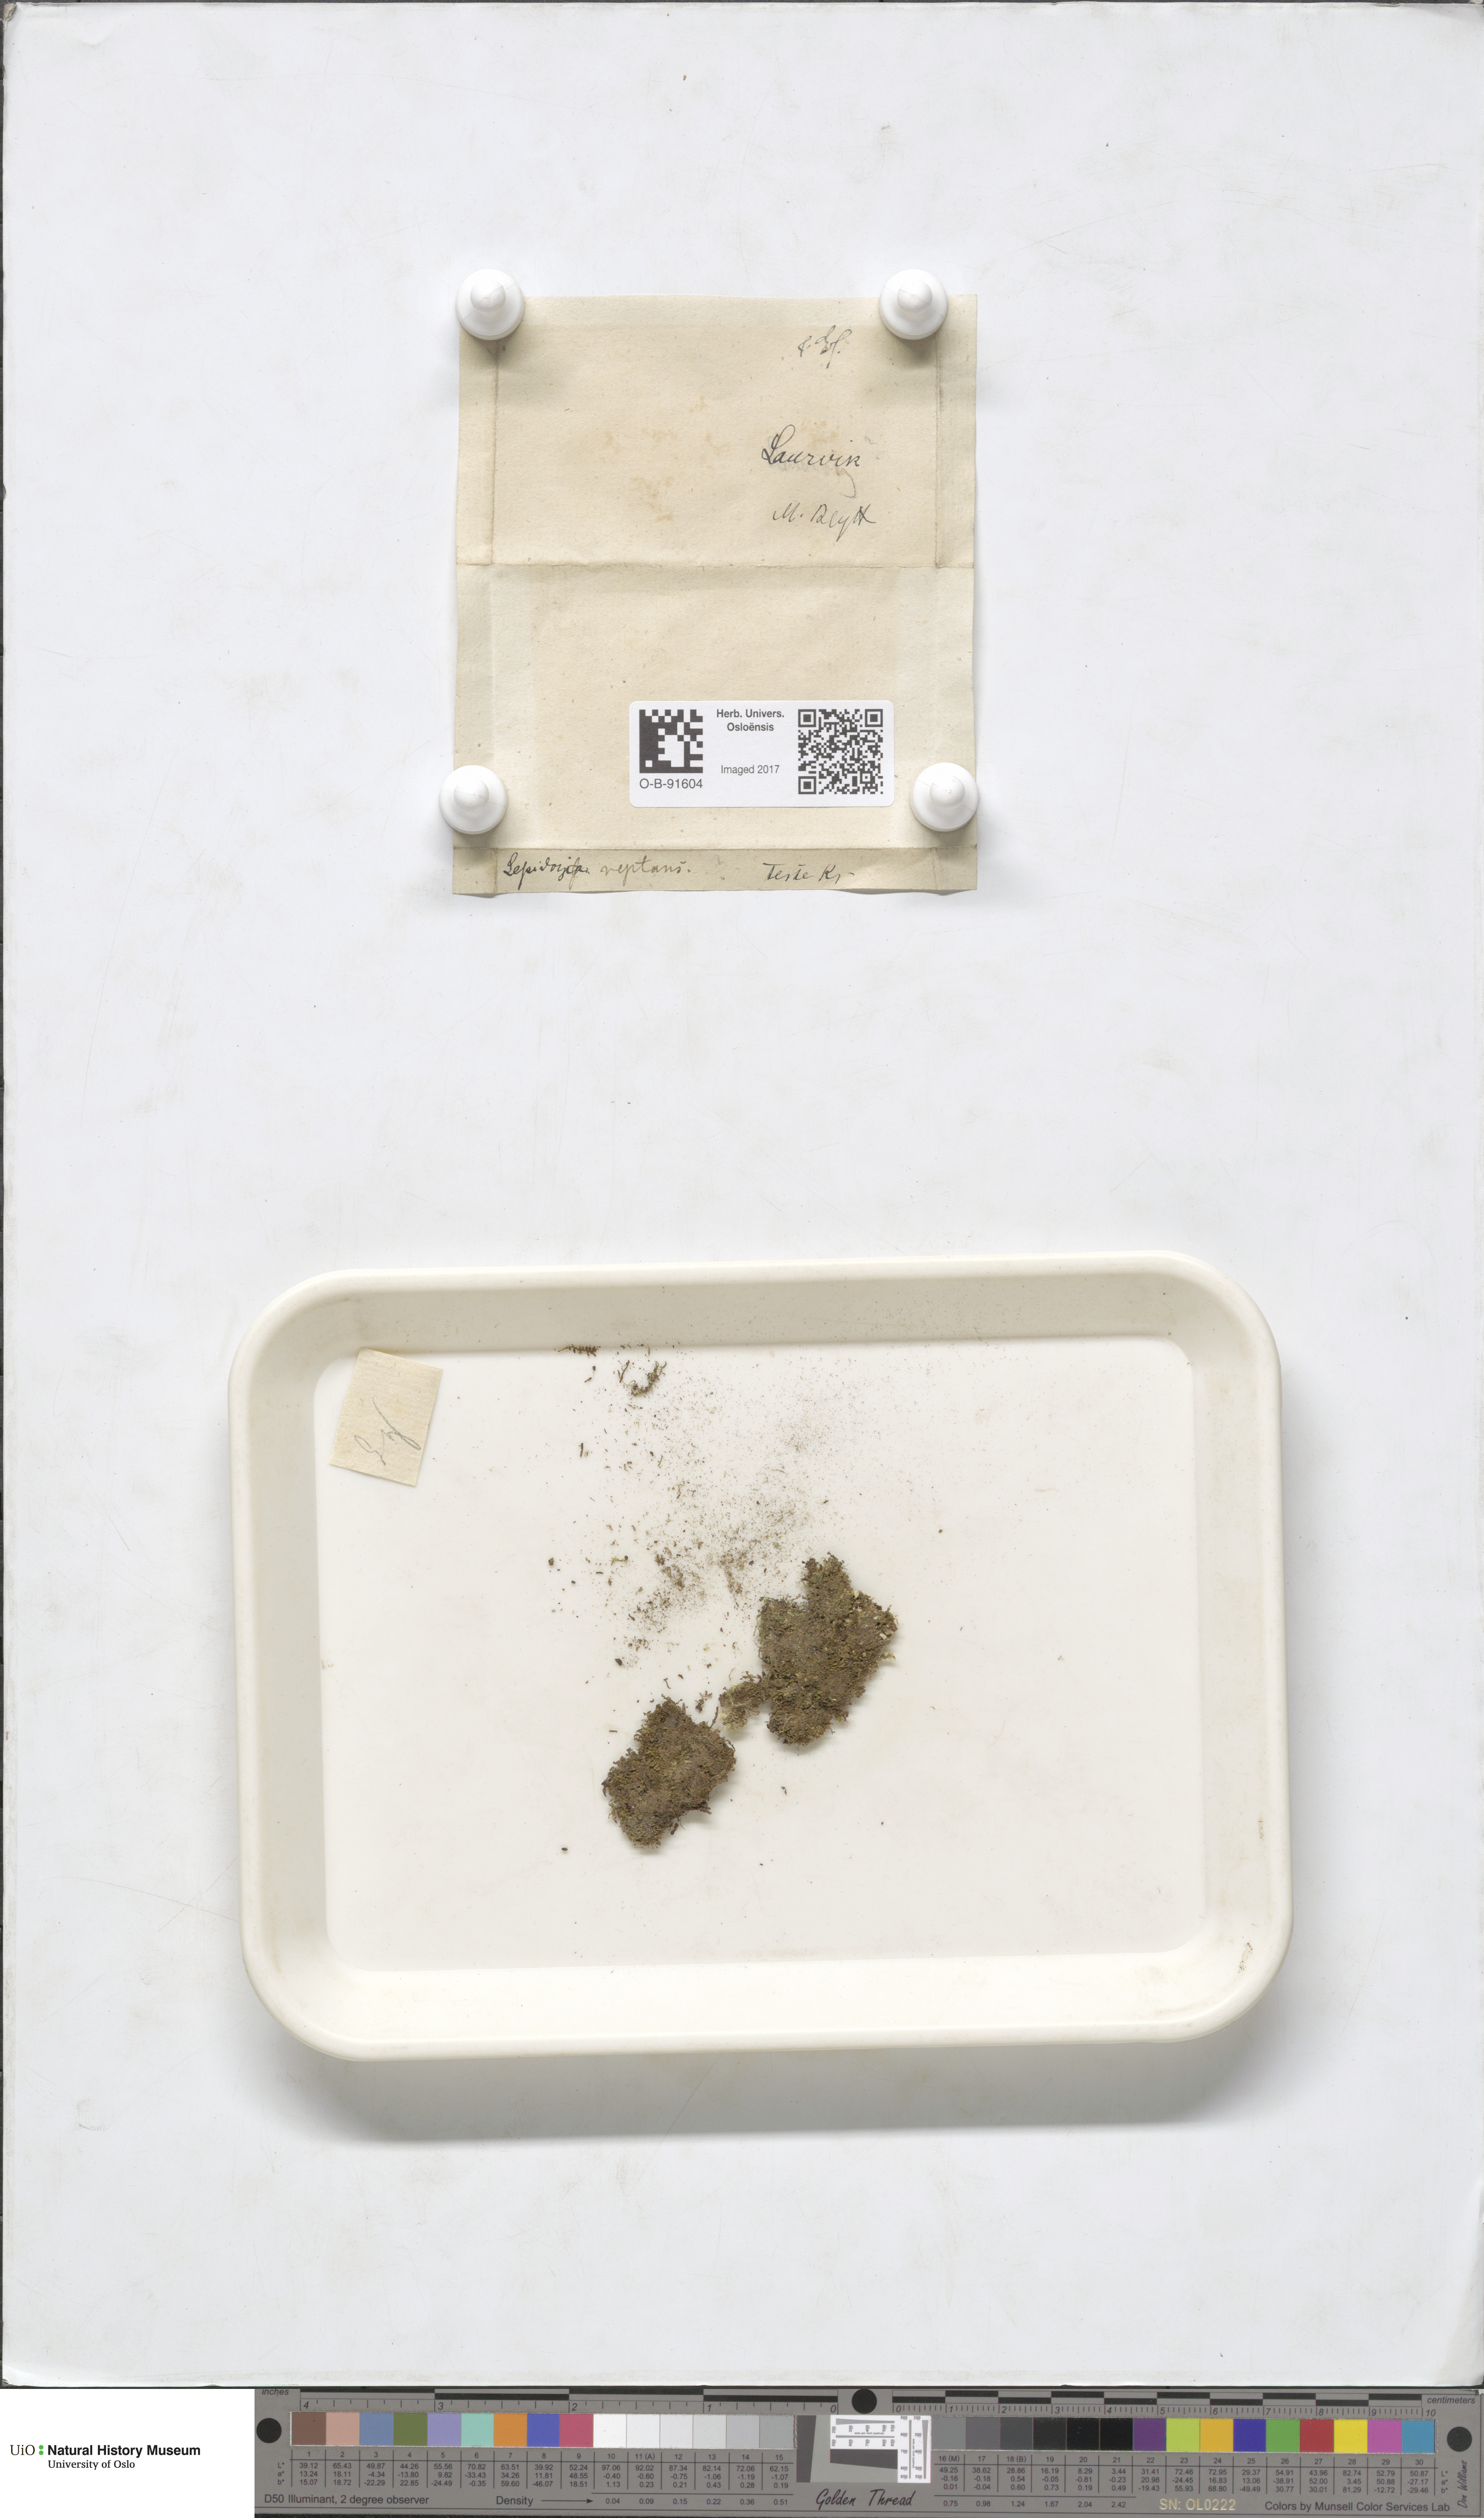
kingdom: Plantae
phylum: Marchantiophyta
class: Jungermanniopsida
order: Jungermanniales
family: Lepidoziaceae
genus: Lepidozia
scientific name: Lepidozia reptans
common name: Creeping fingerwort
